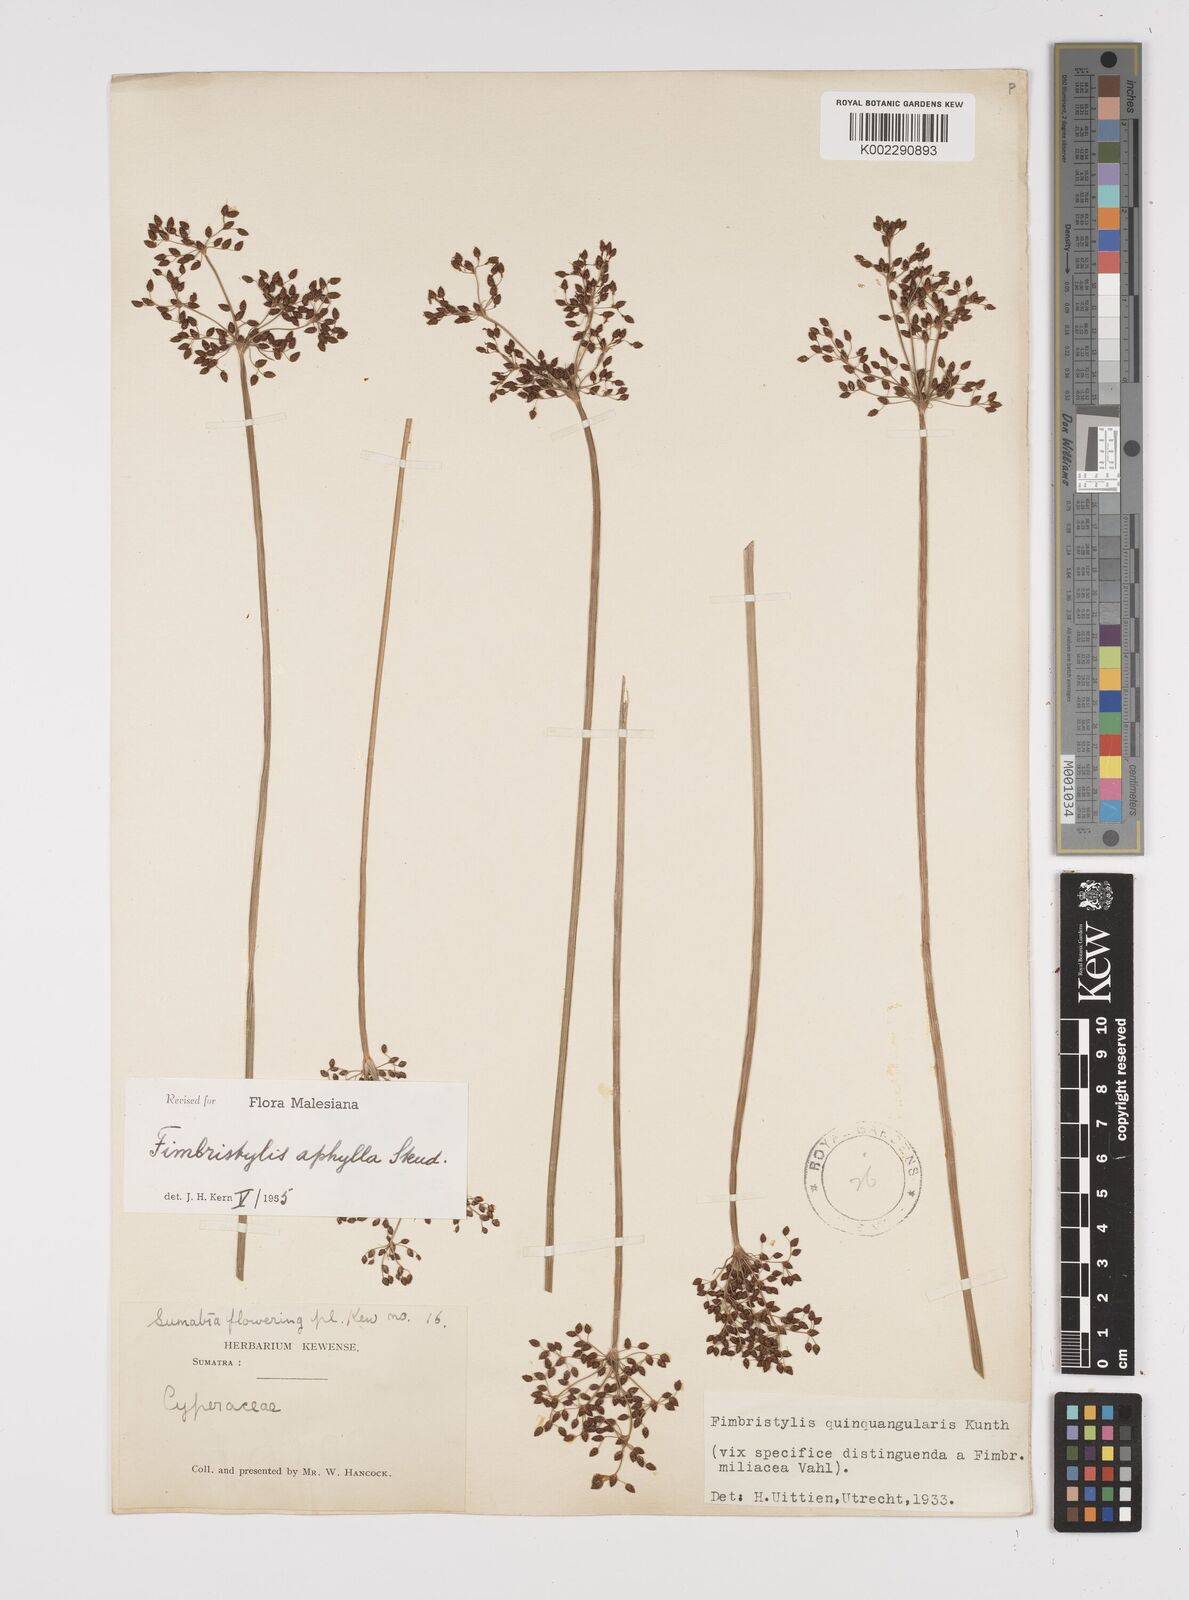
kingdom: Plantae
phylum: Tracheophyta
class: Liliopsida
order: Poales
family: Cyperaceae
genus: Fimbristylis
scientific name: Fimbristylis aphylla
